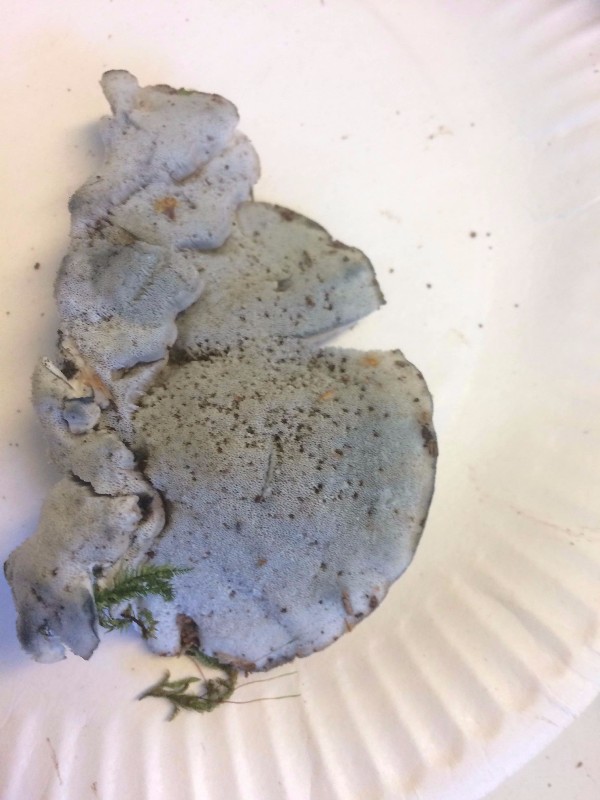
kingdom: Fungi
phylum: Basidiomycota
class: Agaricomycetes
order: Polyporales
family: Polyporaceae
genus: Cyanosporus
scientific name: Cyanosporus caesius
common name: blålig kødporesvamp
